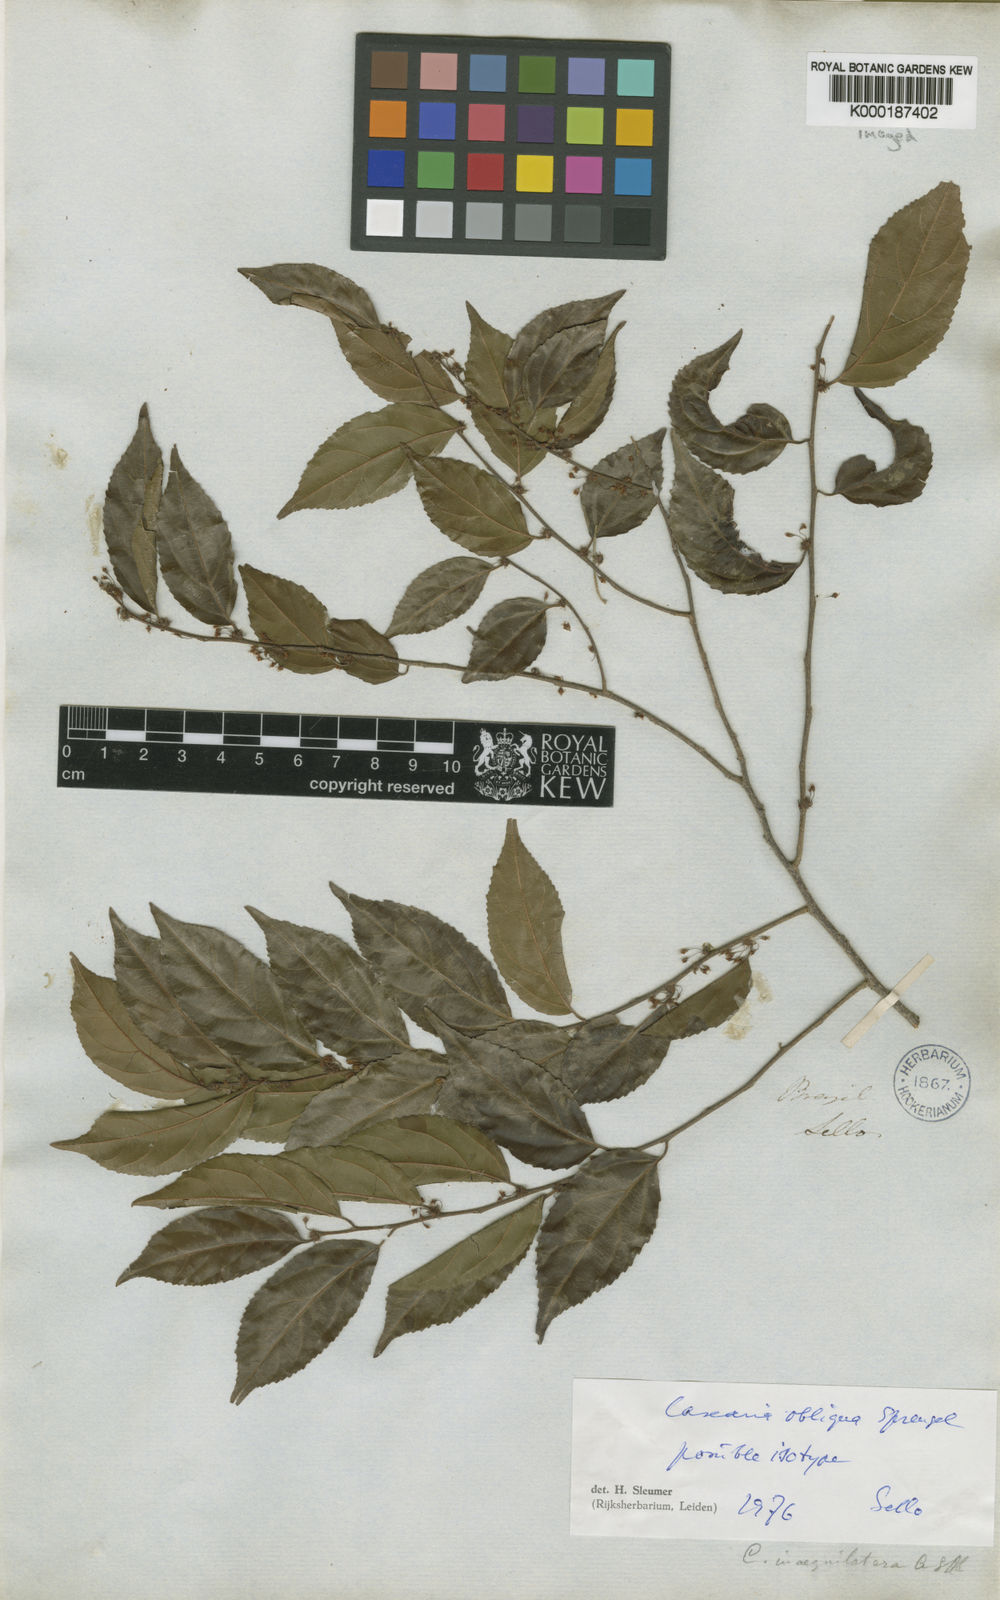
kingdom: Plantae
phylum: Tracheophyta
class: Magnoliopsida
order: Malpighiales
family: Salicaceae
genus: Casearia
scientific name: Casearia obliqua
